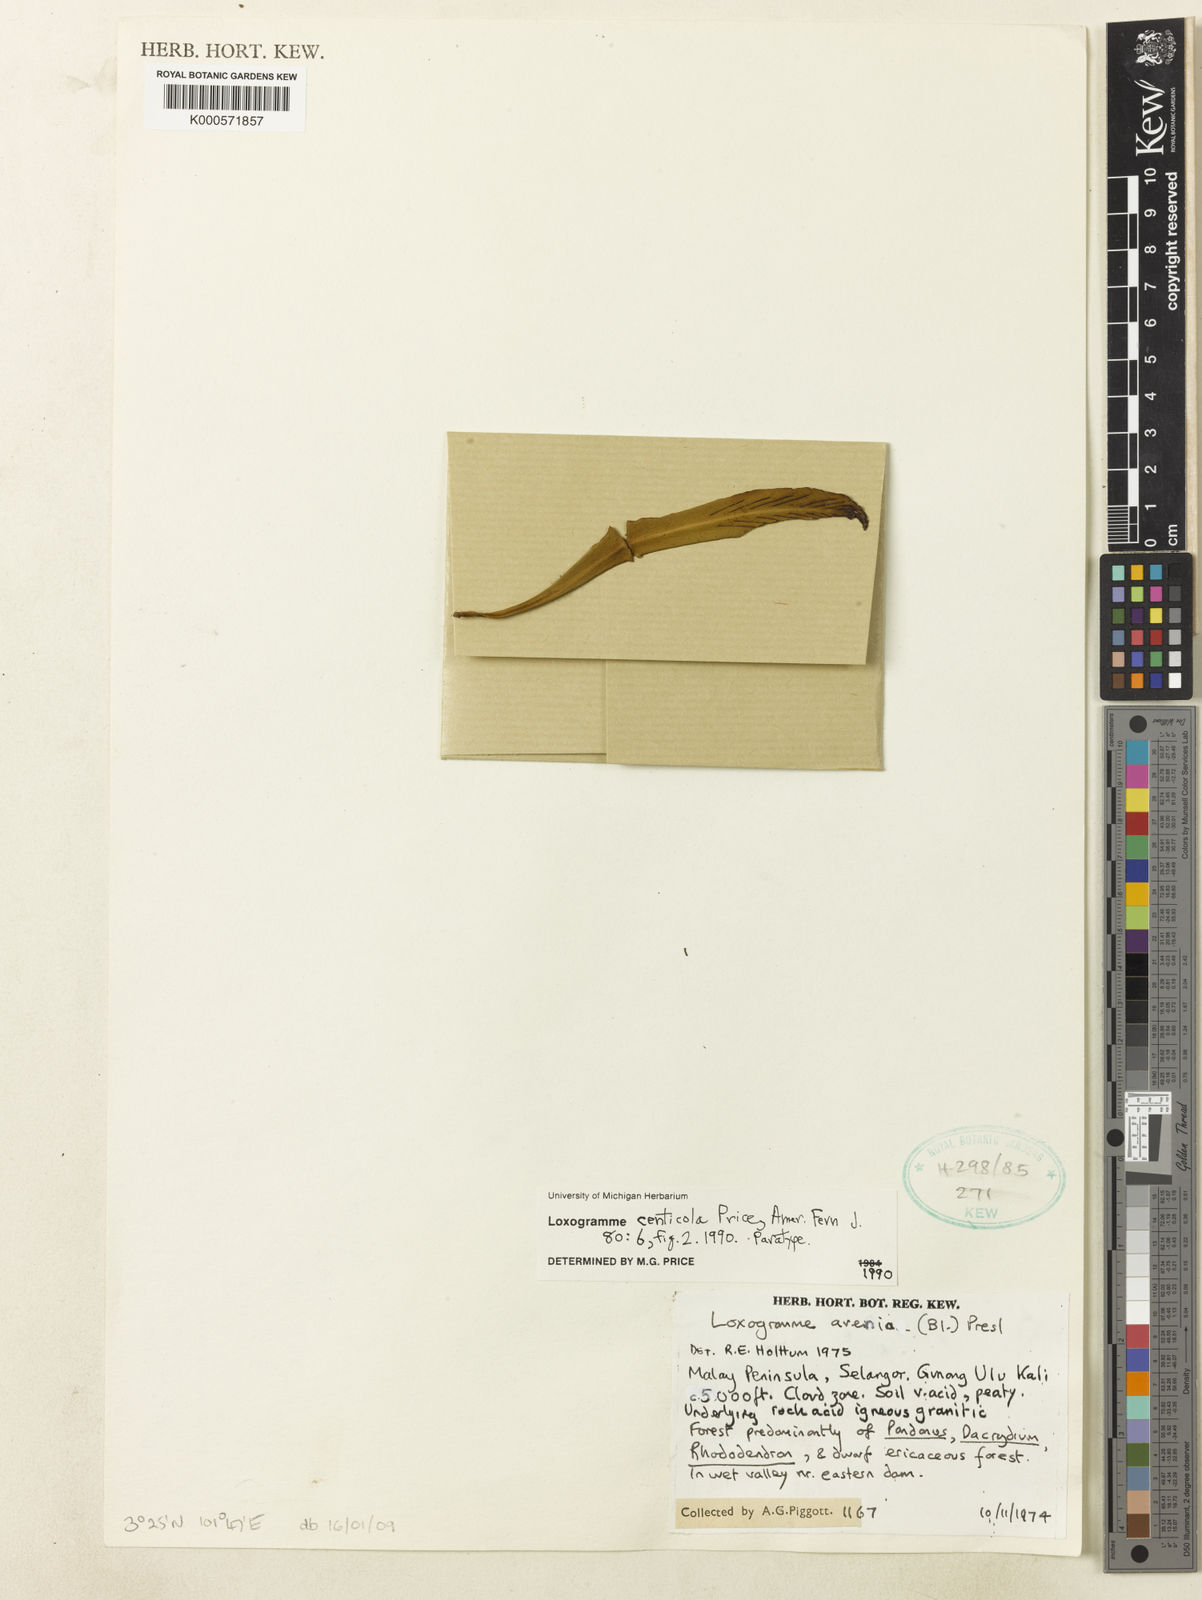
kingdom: Plantae
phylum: Tracheophyta
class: Polypodiopsida
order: Polypodiales
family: Polypodiaceae
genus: Loxogramme
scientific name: Loxogramme centicola
